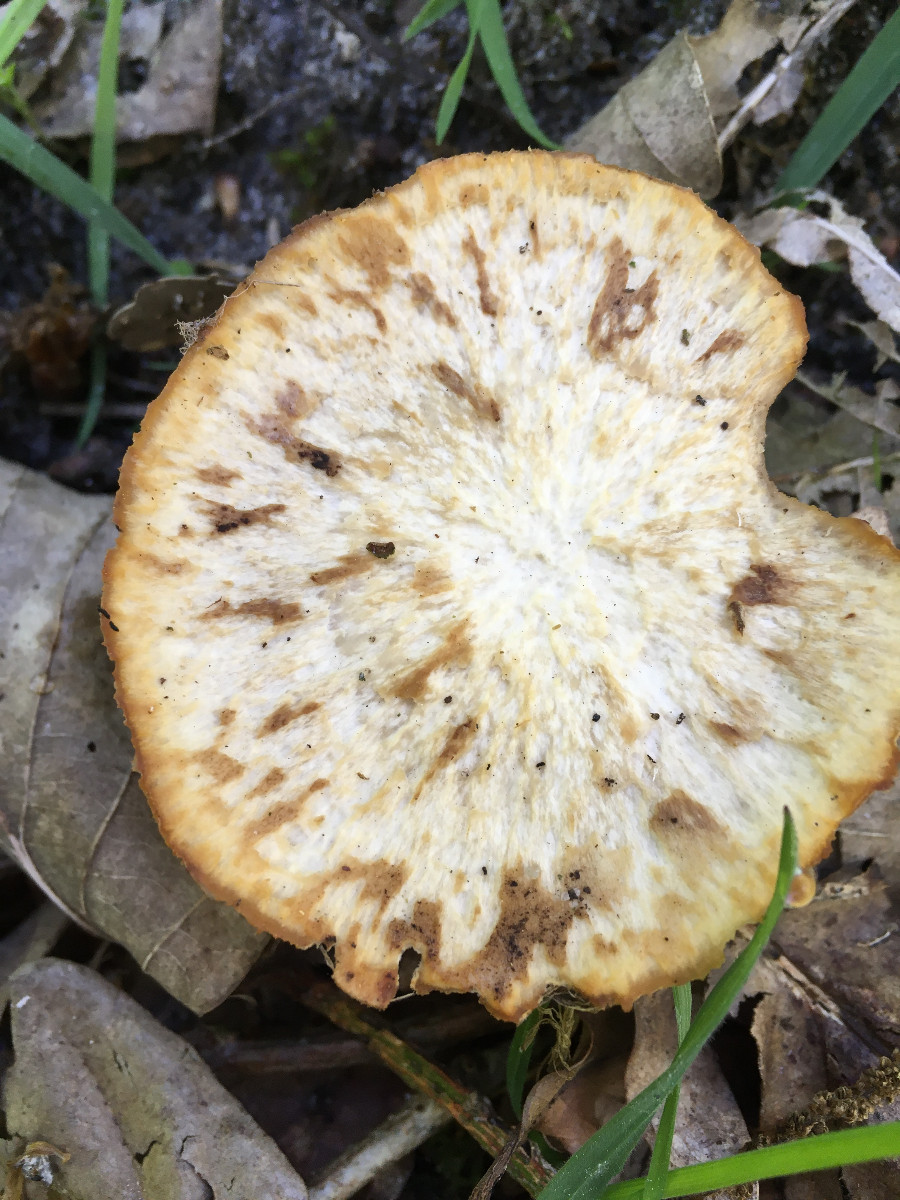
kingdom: Fungi
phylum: Basidiomycota
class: Agaricomycetes
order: Polyporales
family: Polyporaceae
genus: Lentinus
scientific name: Lentinus substrictus
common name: forårs-stilkporesvamp
